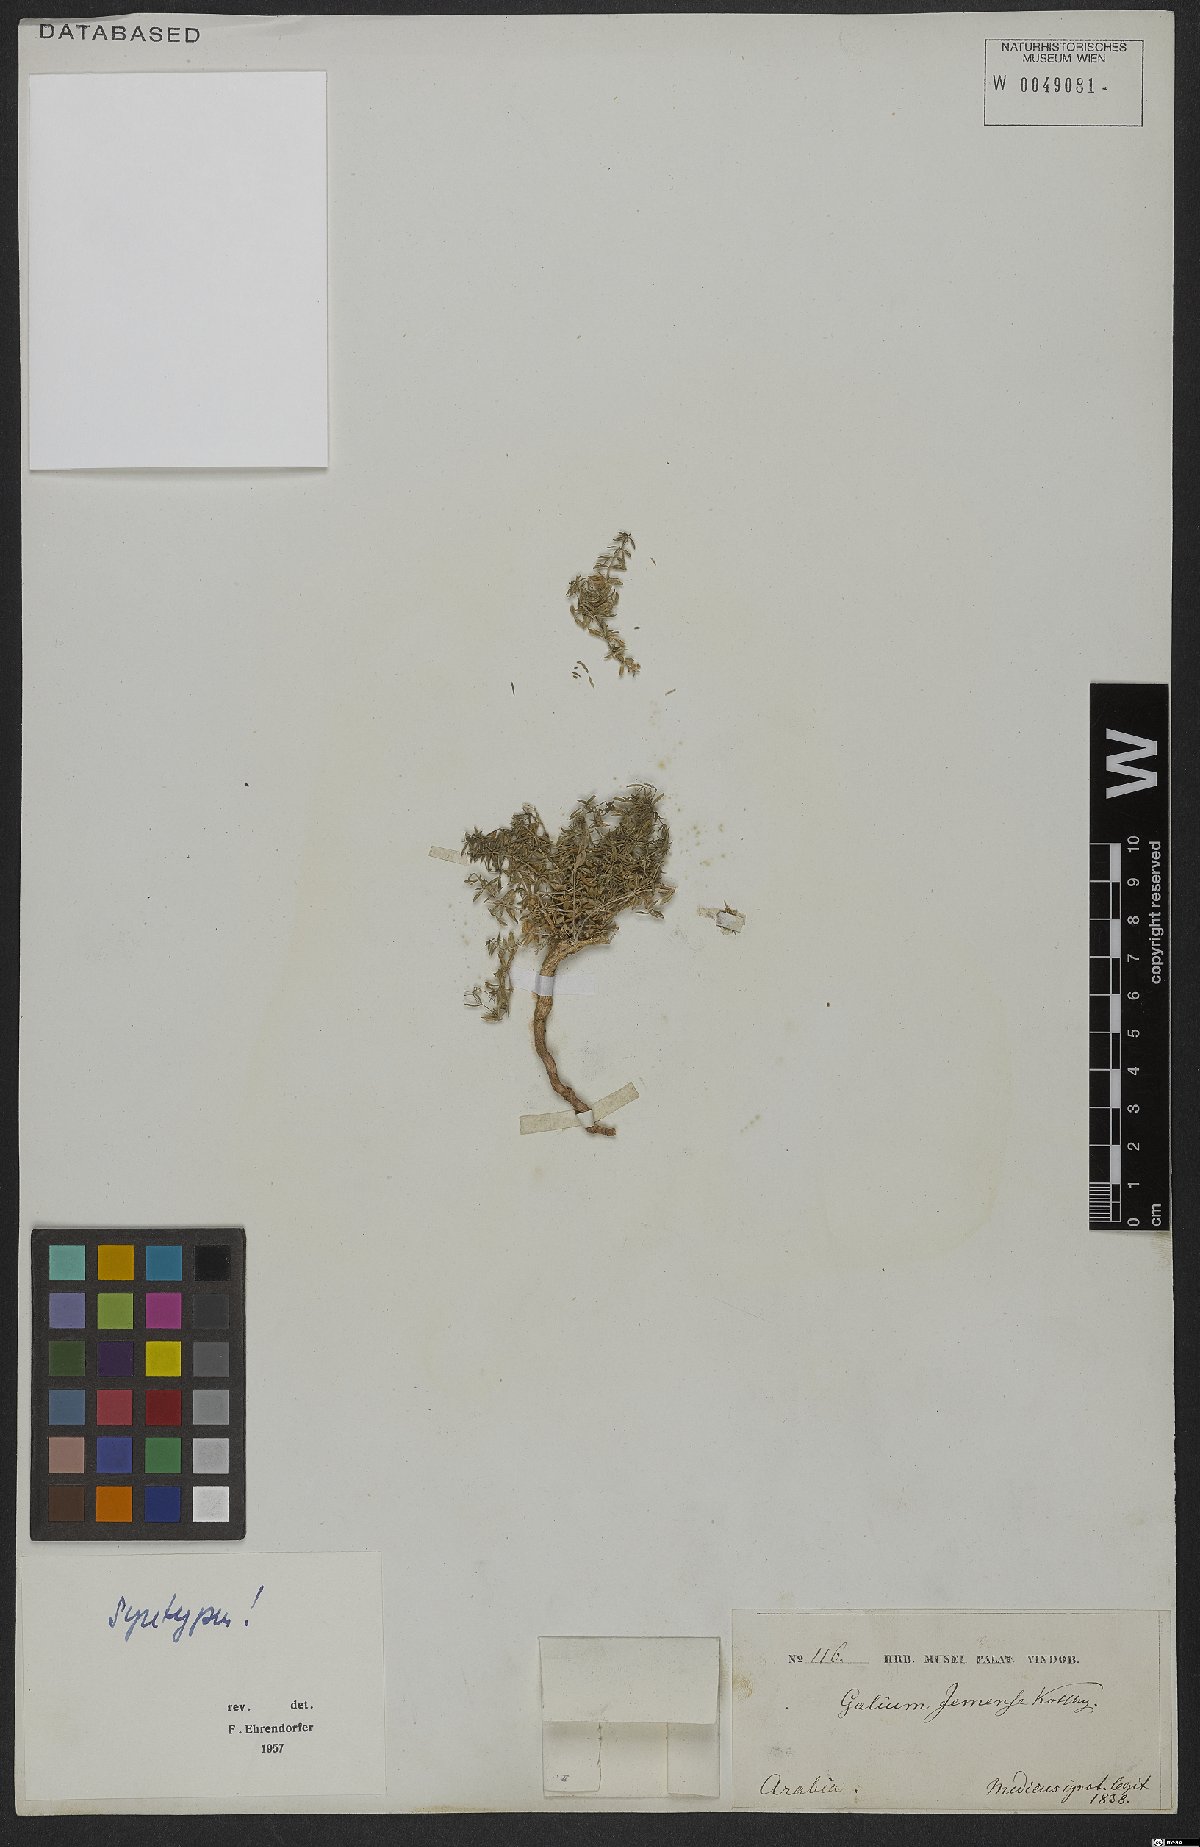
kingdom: Plantae
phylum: Tracheophyta
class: Magnoliopsida
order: Gentianales
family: Rubiaceae
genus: Galium
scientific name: Galium jemense
